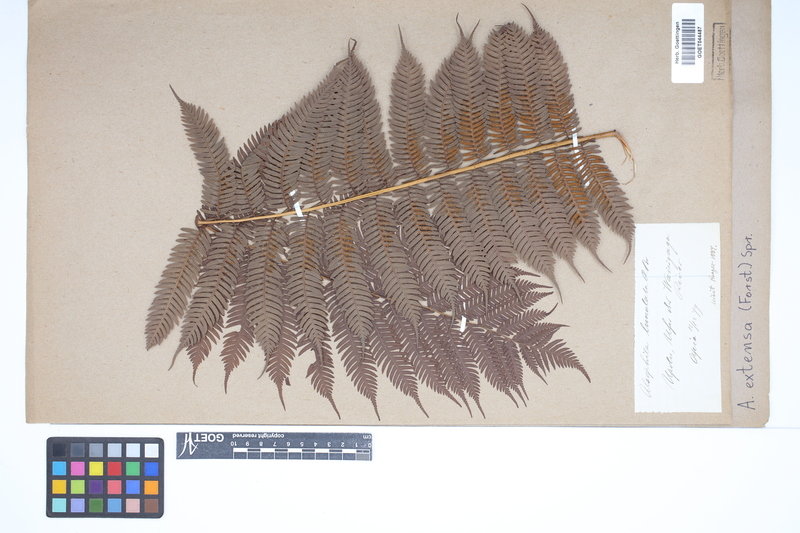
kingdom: Plantae
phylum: Tracheophyta
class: Polypodiopsida
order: Cyatheales
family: Cyatheaceae
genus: Alsophila
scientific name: Alsophila junghuhniana
